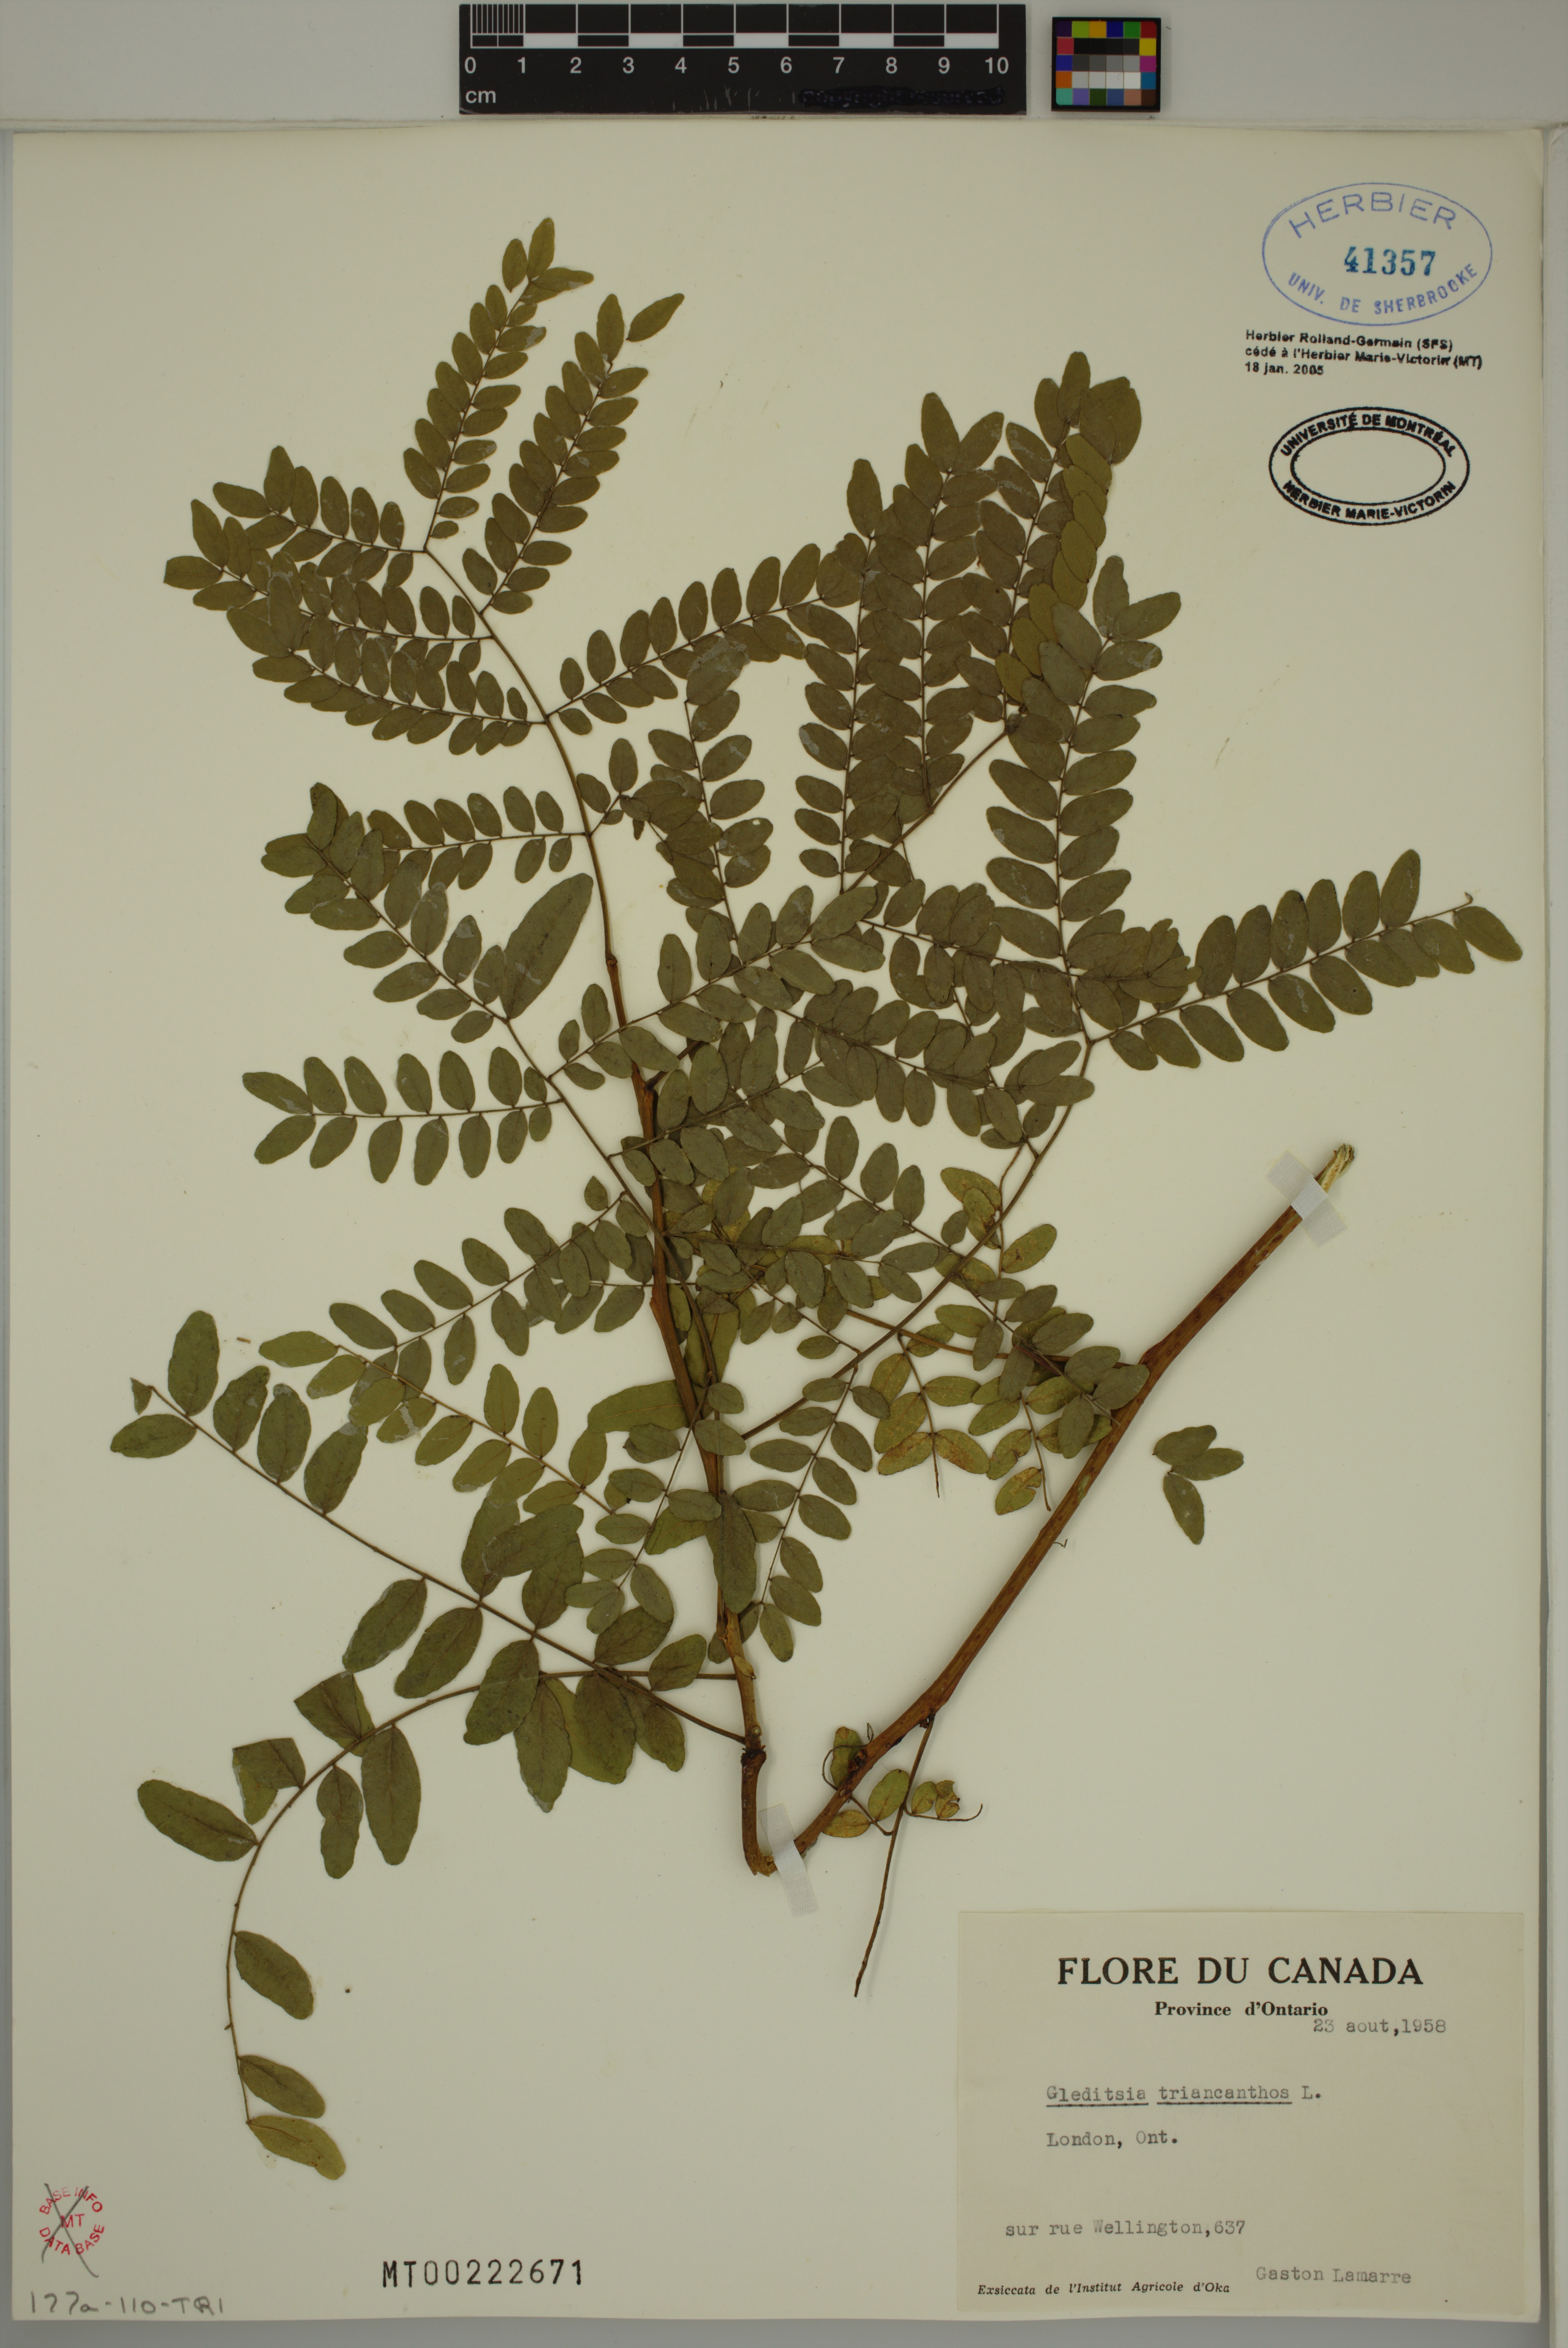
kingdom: Plantae
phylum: Tracheophyta
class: Magnoliopsida
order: Fabales
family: Fabaceae
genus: Gleditsia
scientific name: Gleditsia triacanthos
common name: Common honeylocust
